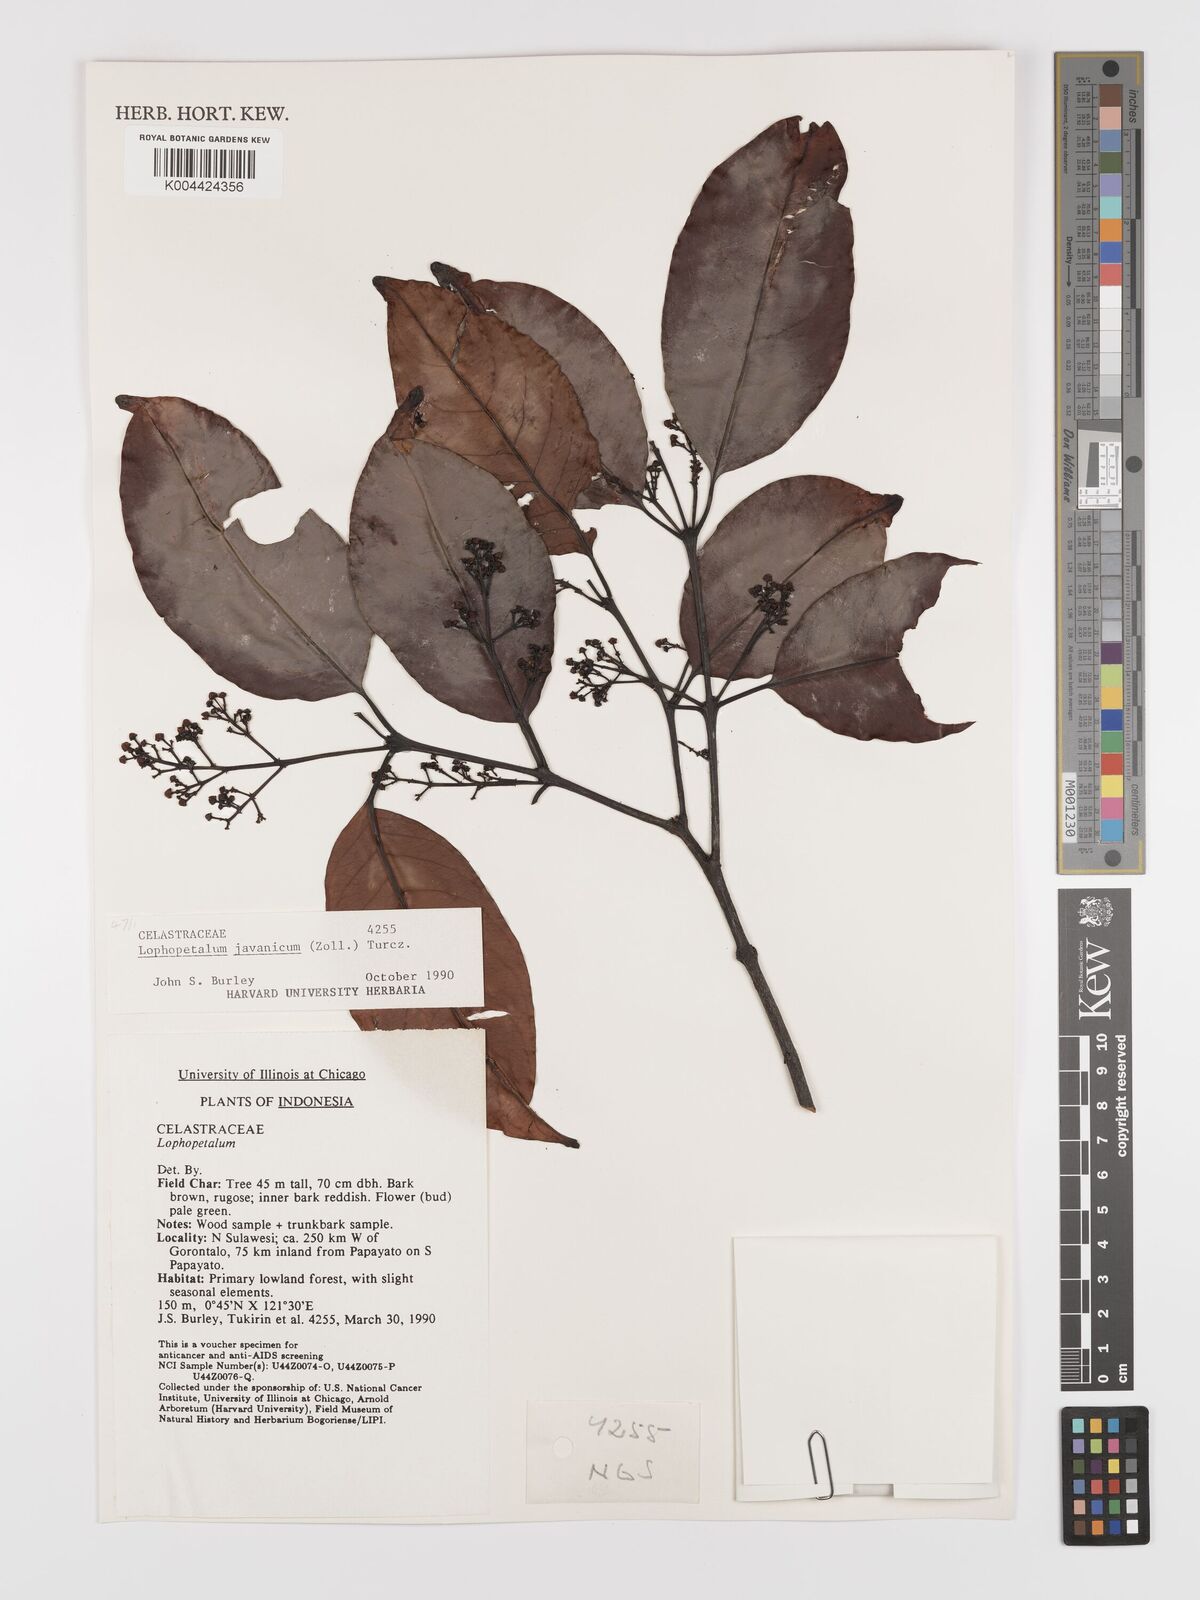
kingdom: Plantae
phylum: Tracheophyta
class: Magnoliopsida
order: Celastrales
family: Celastraceae
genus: Lophopetalum
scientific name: Lophopetalum javanicum
